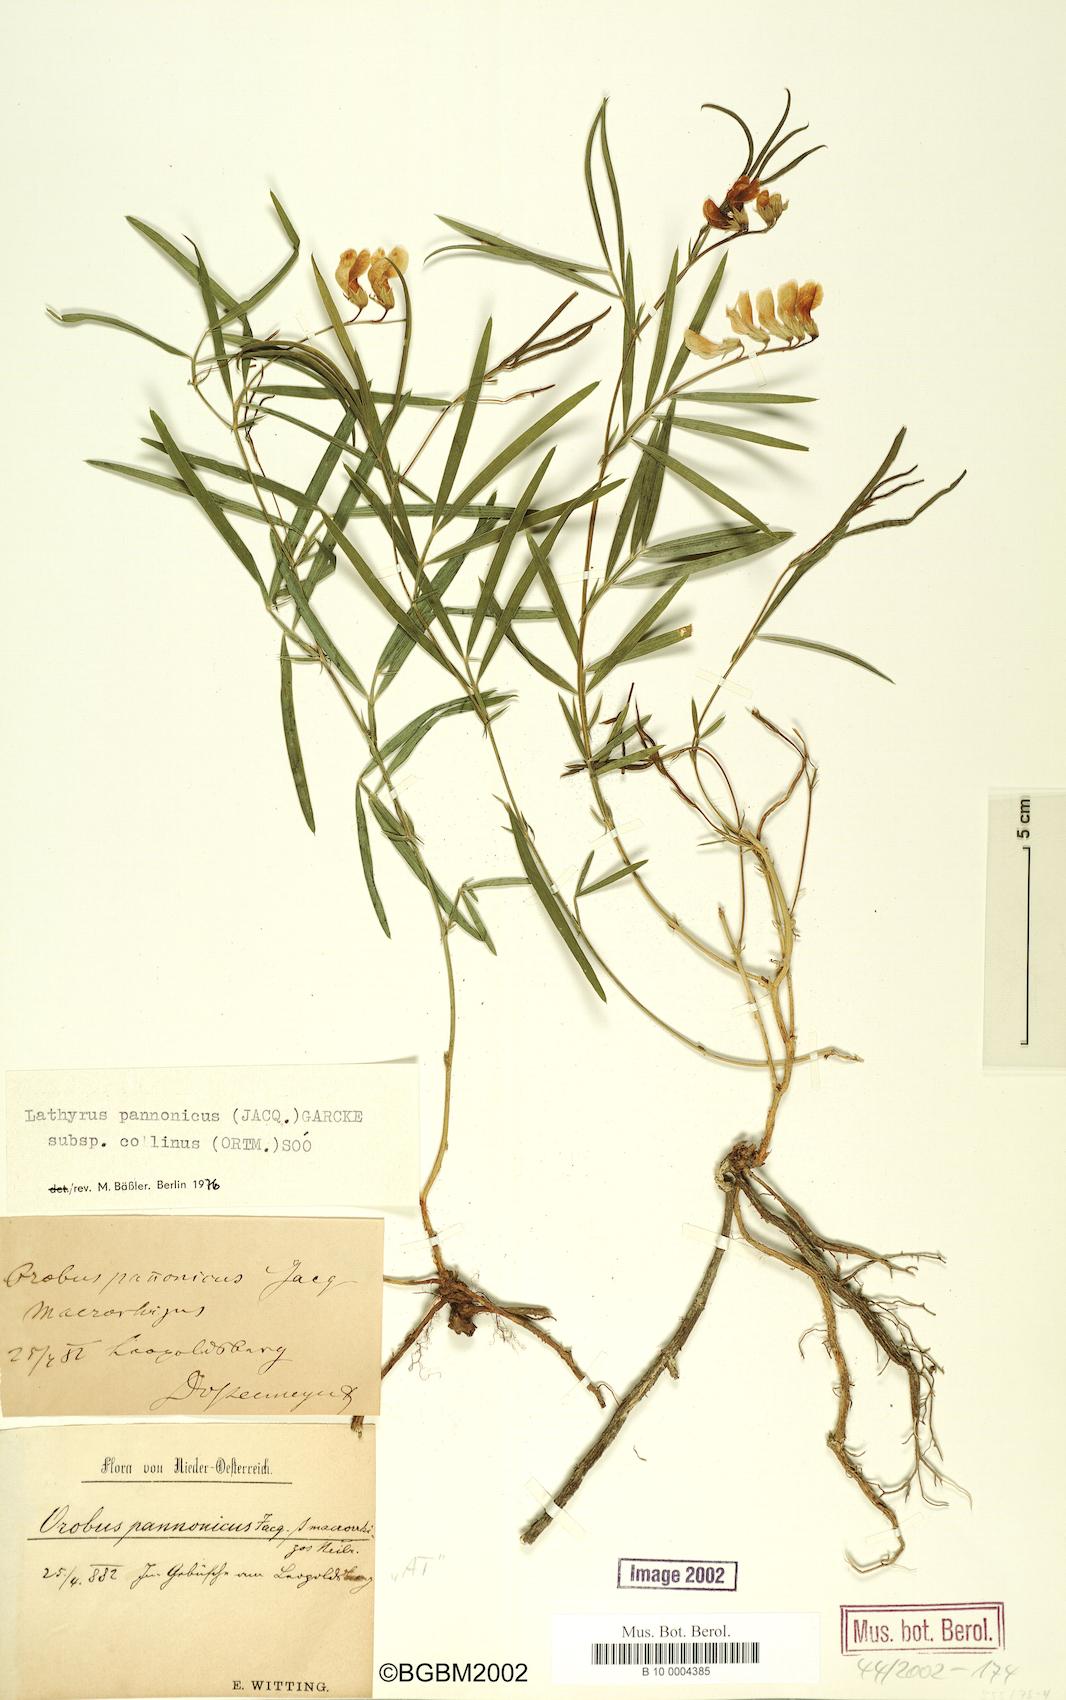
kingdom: Plantae
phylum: Tracheophyta
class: Magnoliopsida
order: Fabales
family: Fabaceae
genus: Lathyrus
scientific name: Lathyrus pannonicus
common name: Pea
